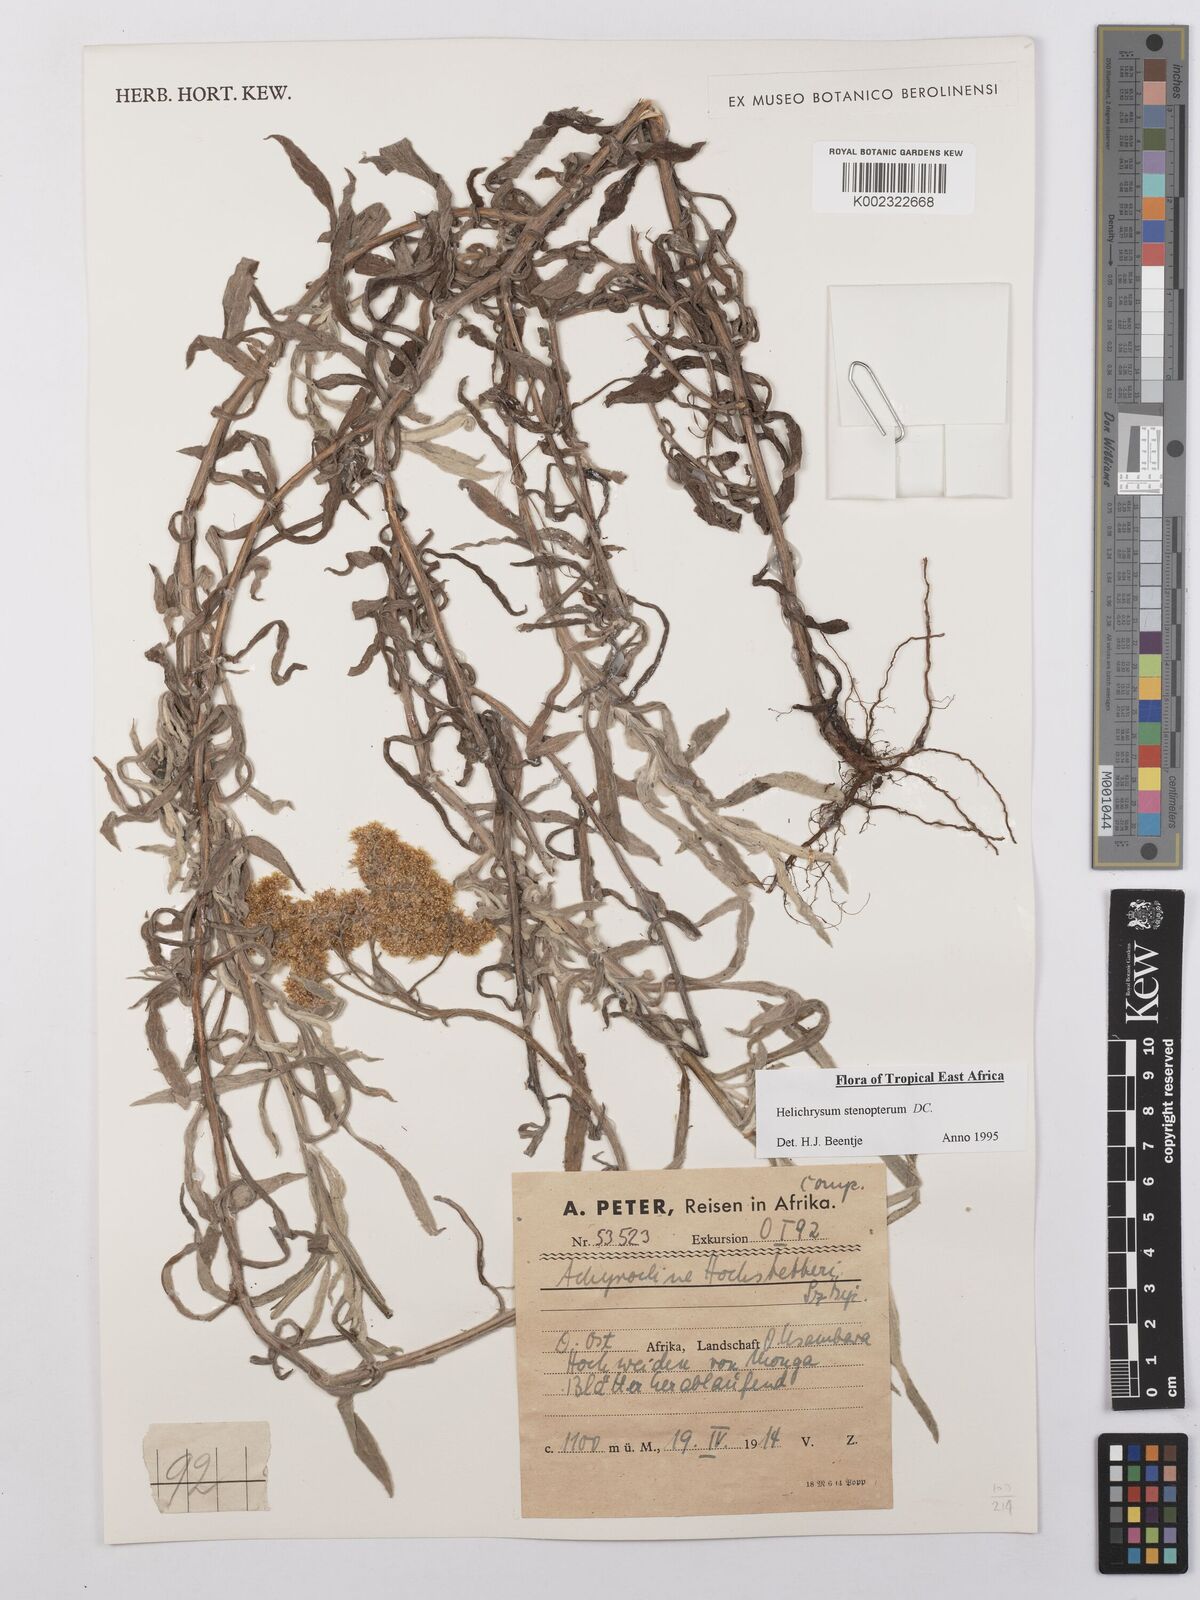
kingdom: Plantae
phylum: Tracheophyta
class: Magnoliopsida
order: Asterales
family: Asteraceae
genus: Helichrysum
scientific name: Helichrysum stenopterum
